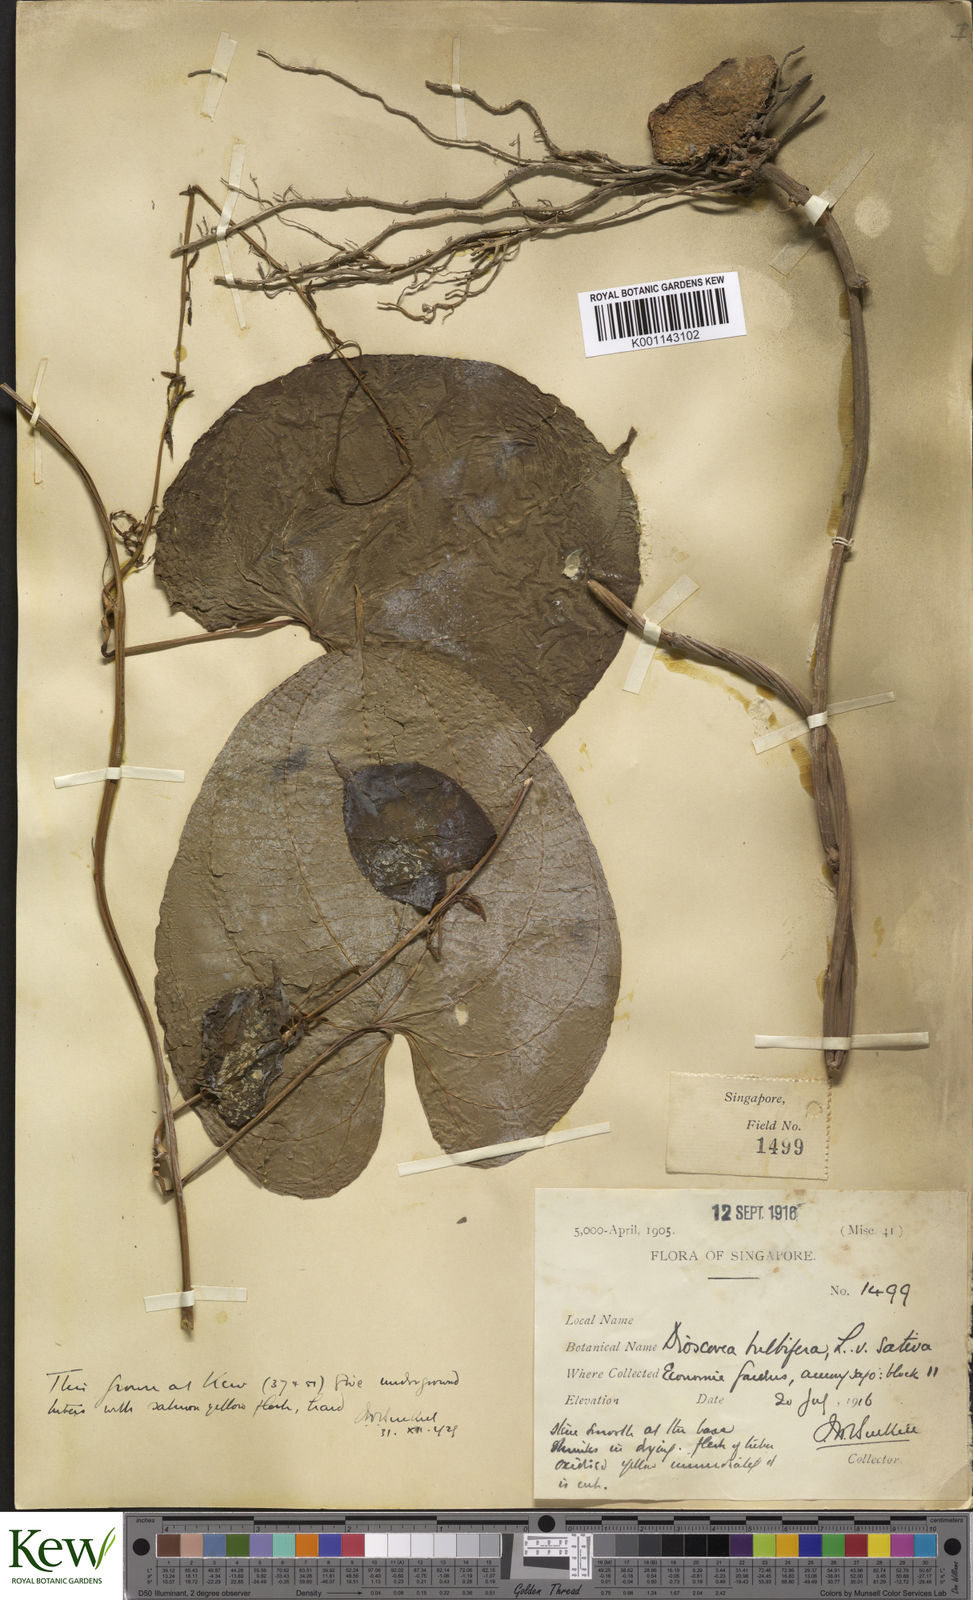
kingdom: Plantae
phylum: Tracheophyta
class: Liliopsida
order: Dioscoreales
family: Dioscoreaceae
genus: Dioscorea
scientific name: Dioscorea bulbifera
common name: Air yam
